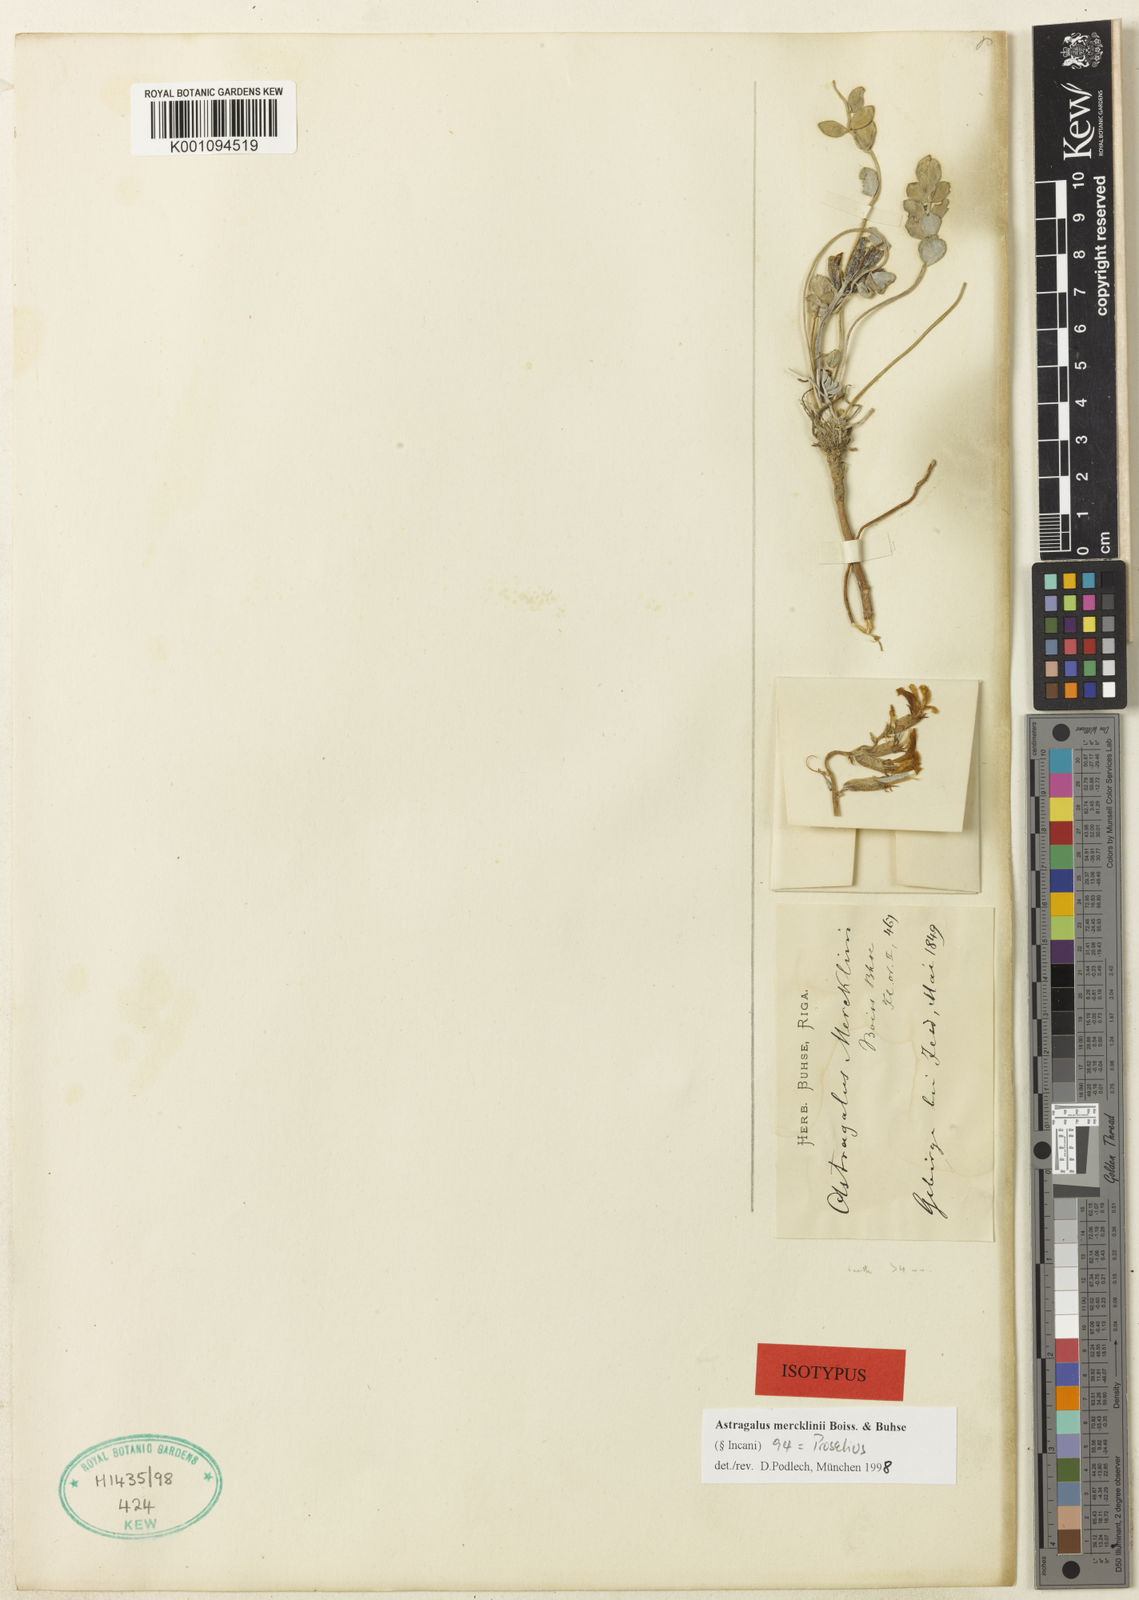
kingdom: Plantae
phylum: Tracheophyta
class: Magnoliopsida
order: Fabales
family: Fabaceae
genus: Astragalus
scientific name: Astragalus
